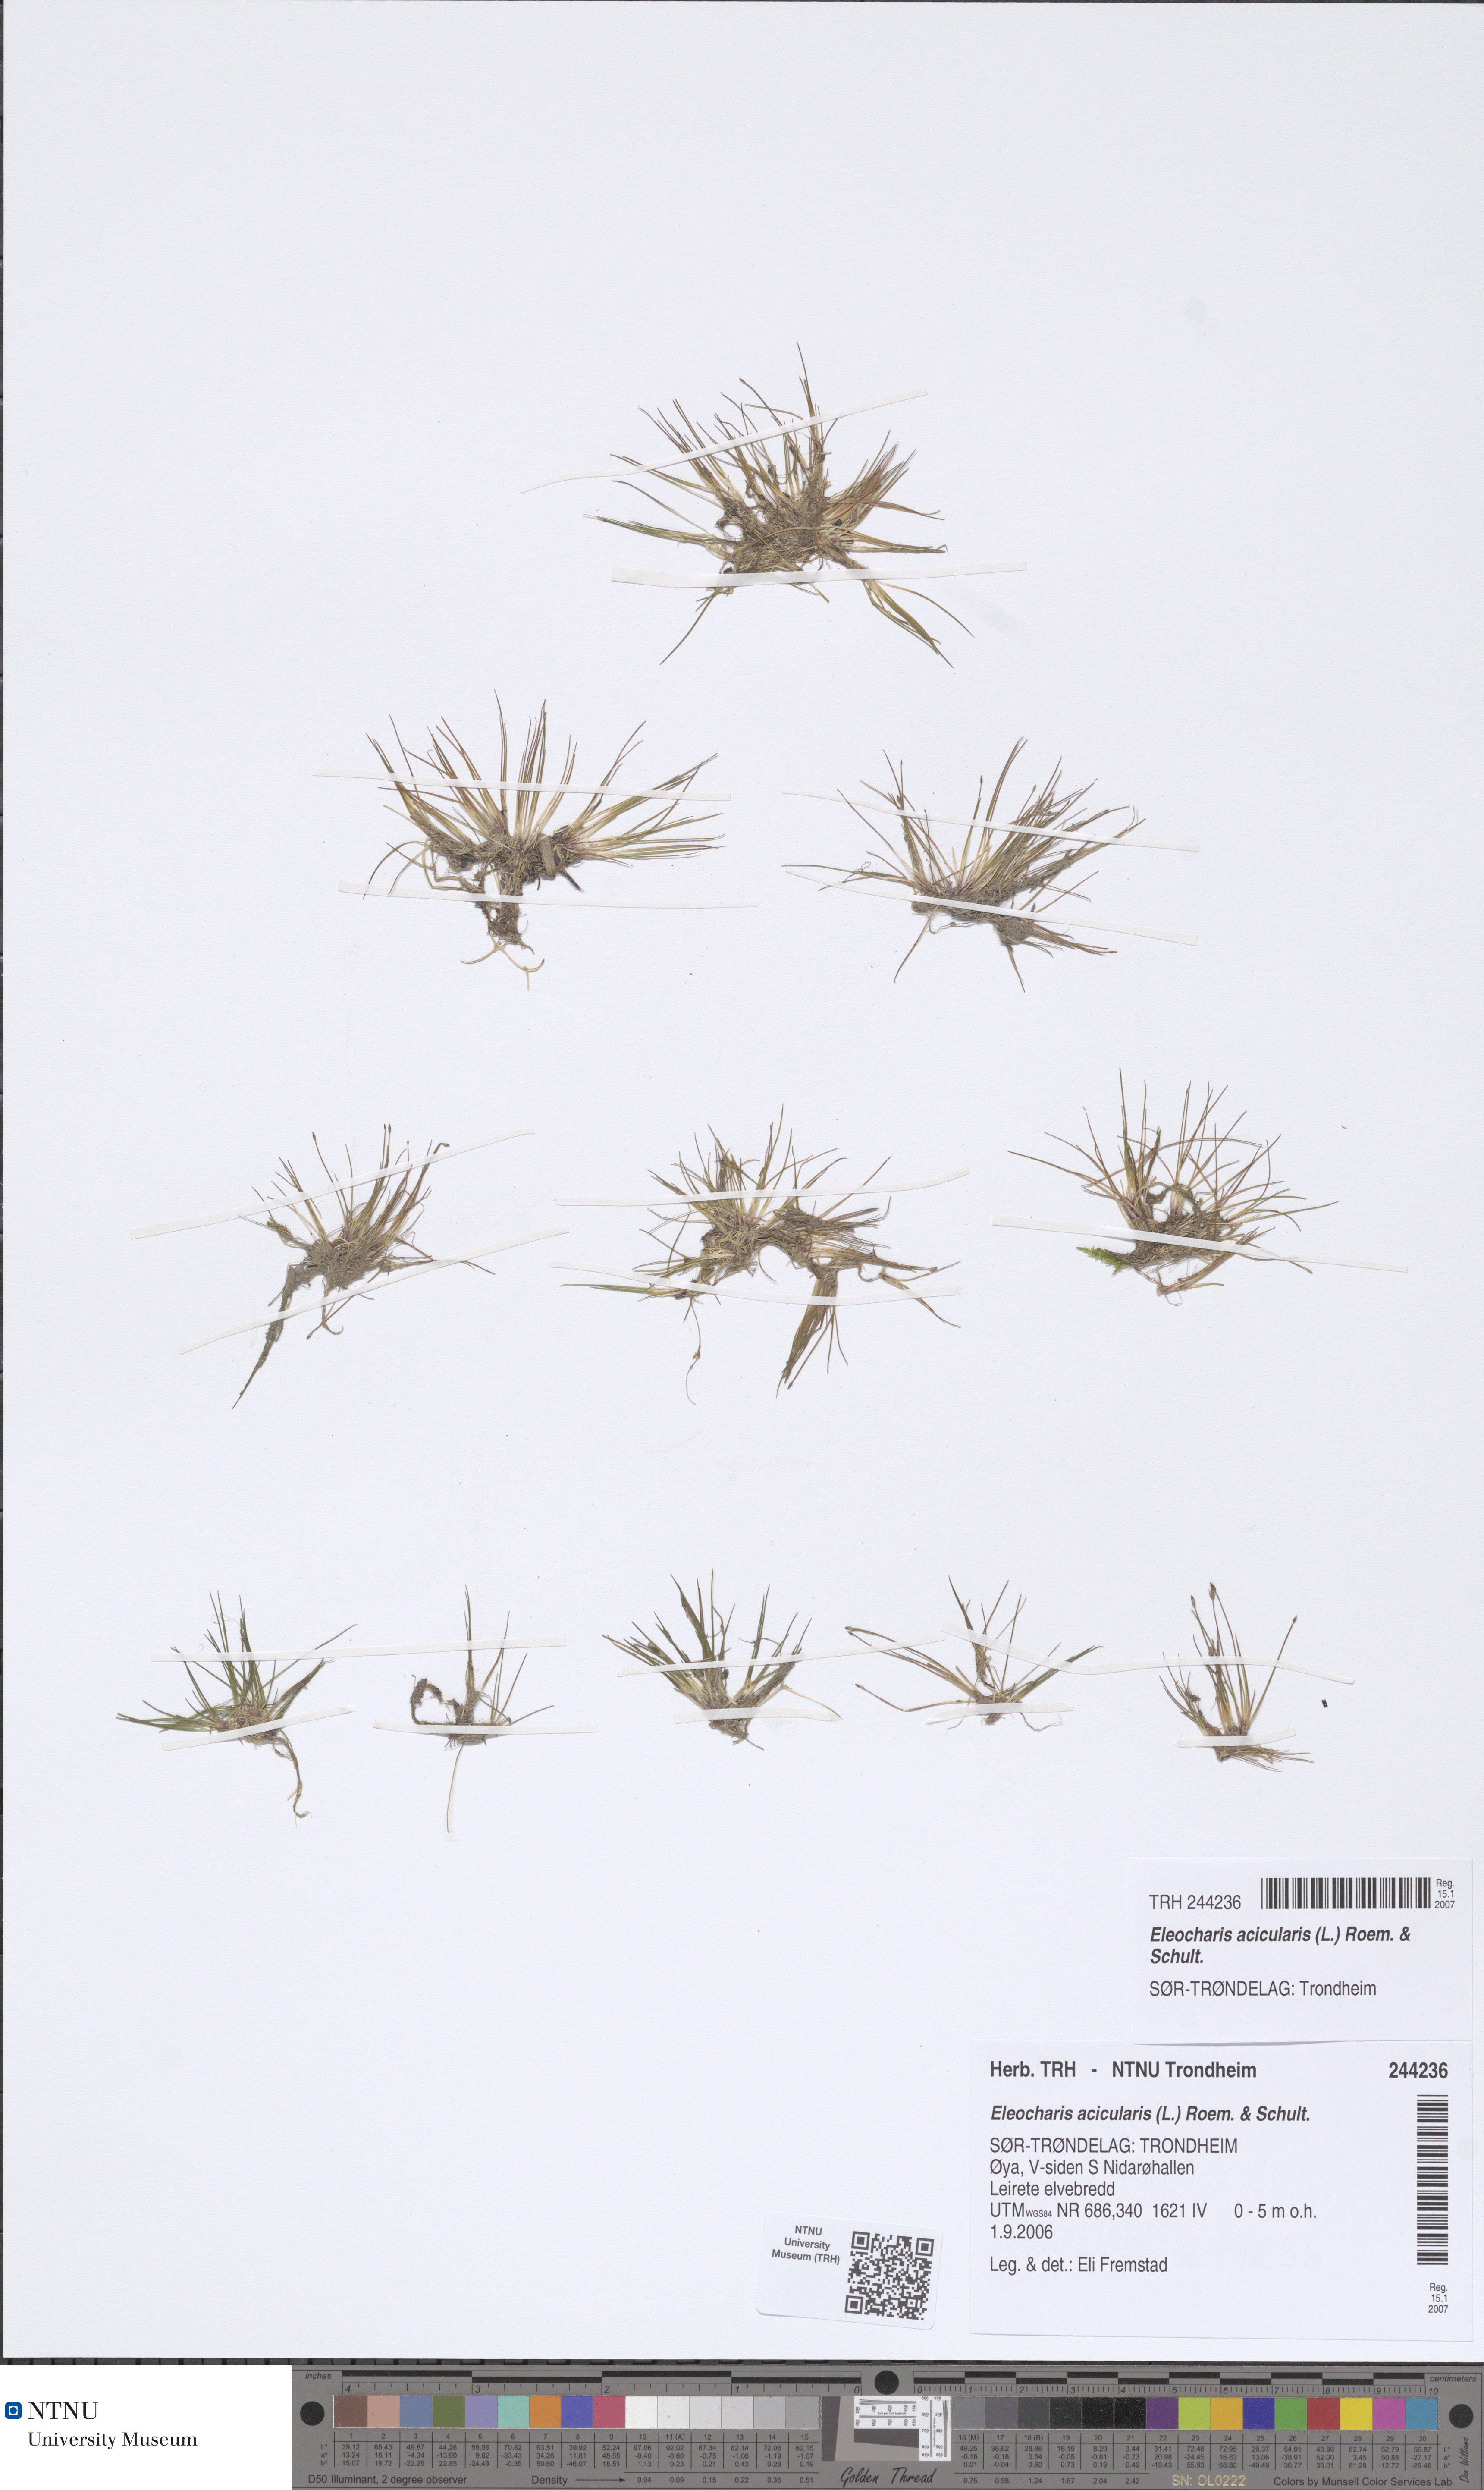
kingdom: Plantae
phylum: Tracheophyta
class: Liliopsida
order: Poales
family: Cyperaceae
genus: Eleocharis
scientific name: Eleocharis acicularis
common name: Needle spike-rush
